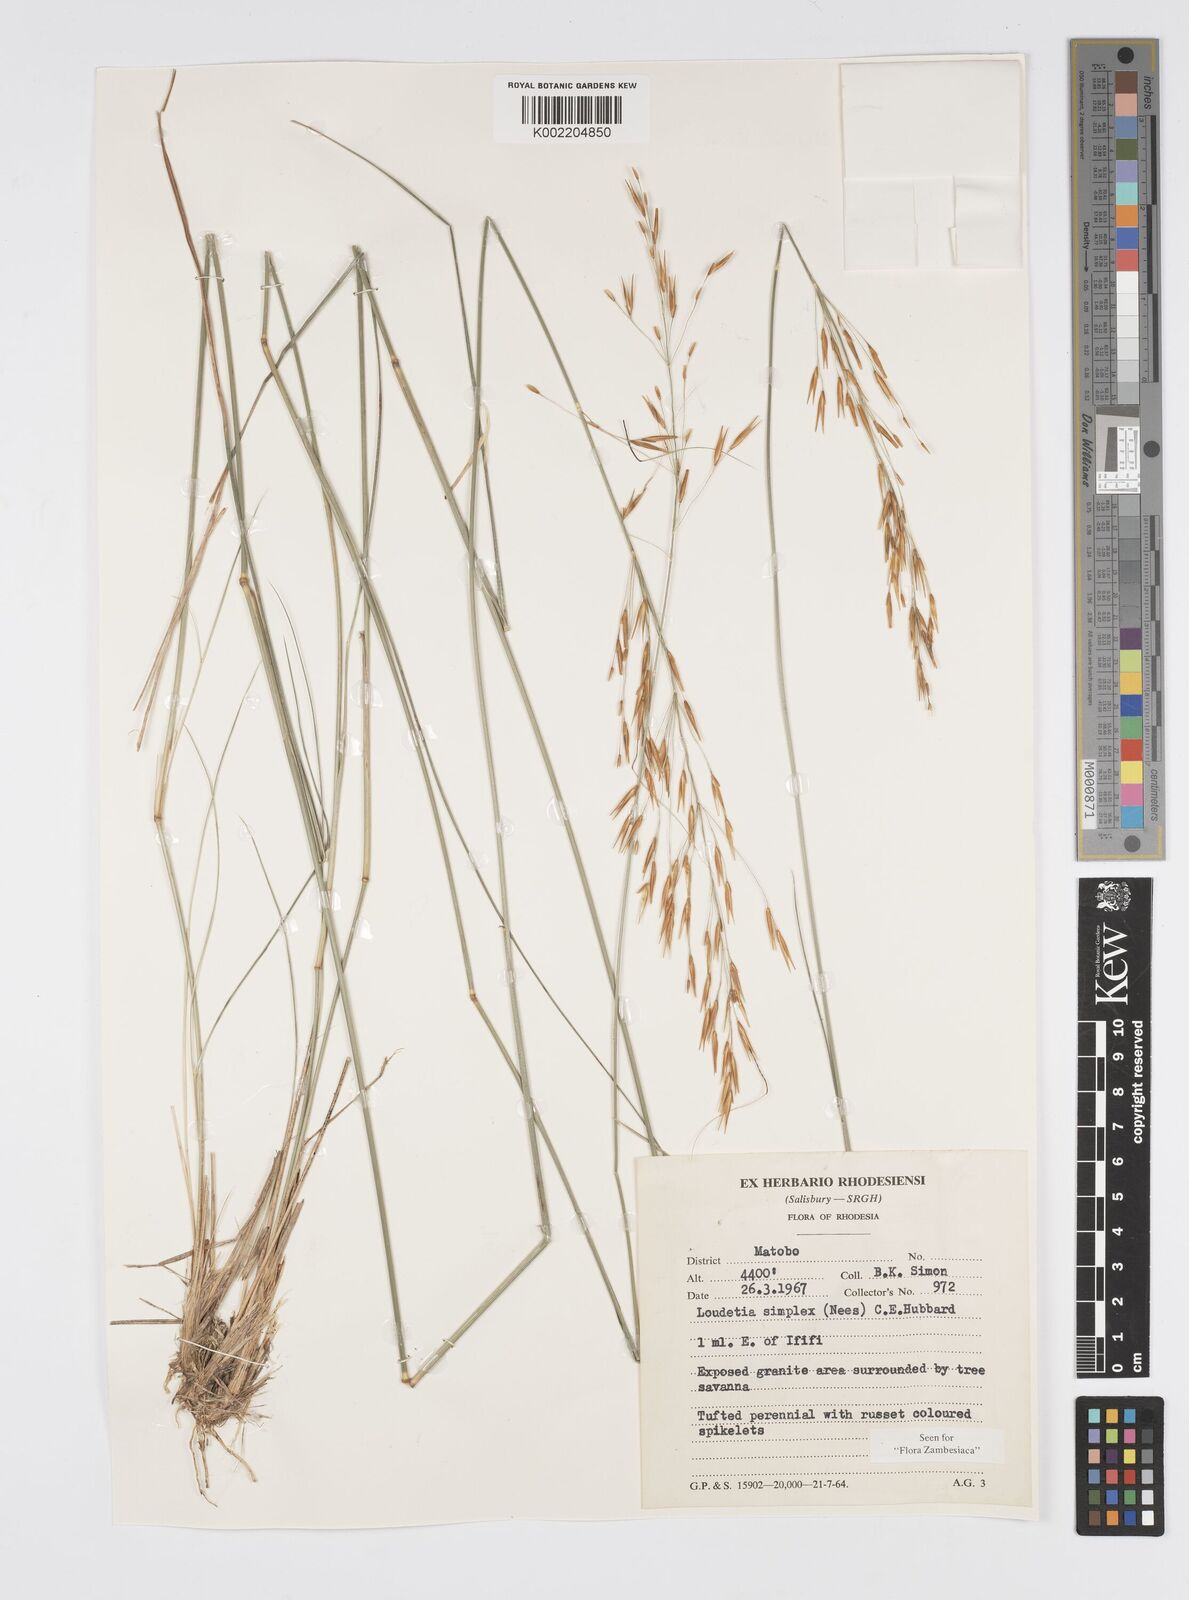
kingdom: Plantae
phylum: Tracheophyta
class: Liliopsida
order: Poales
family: Poaceae
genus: Loudetia
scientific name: Loudetia simplex
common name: Common russet grass
